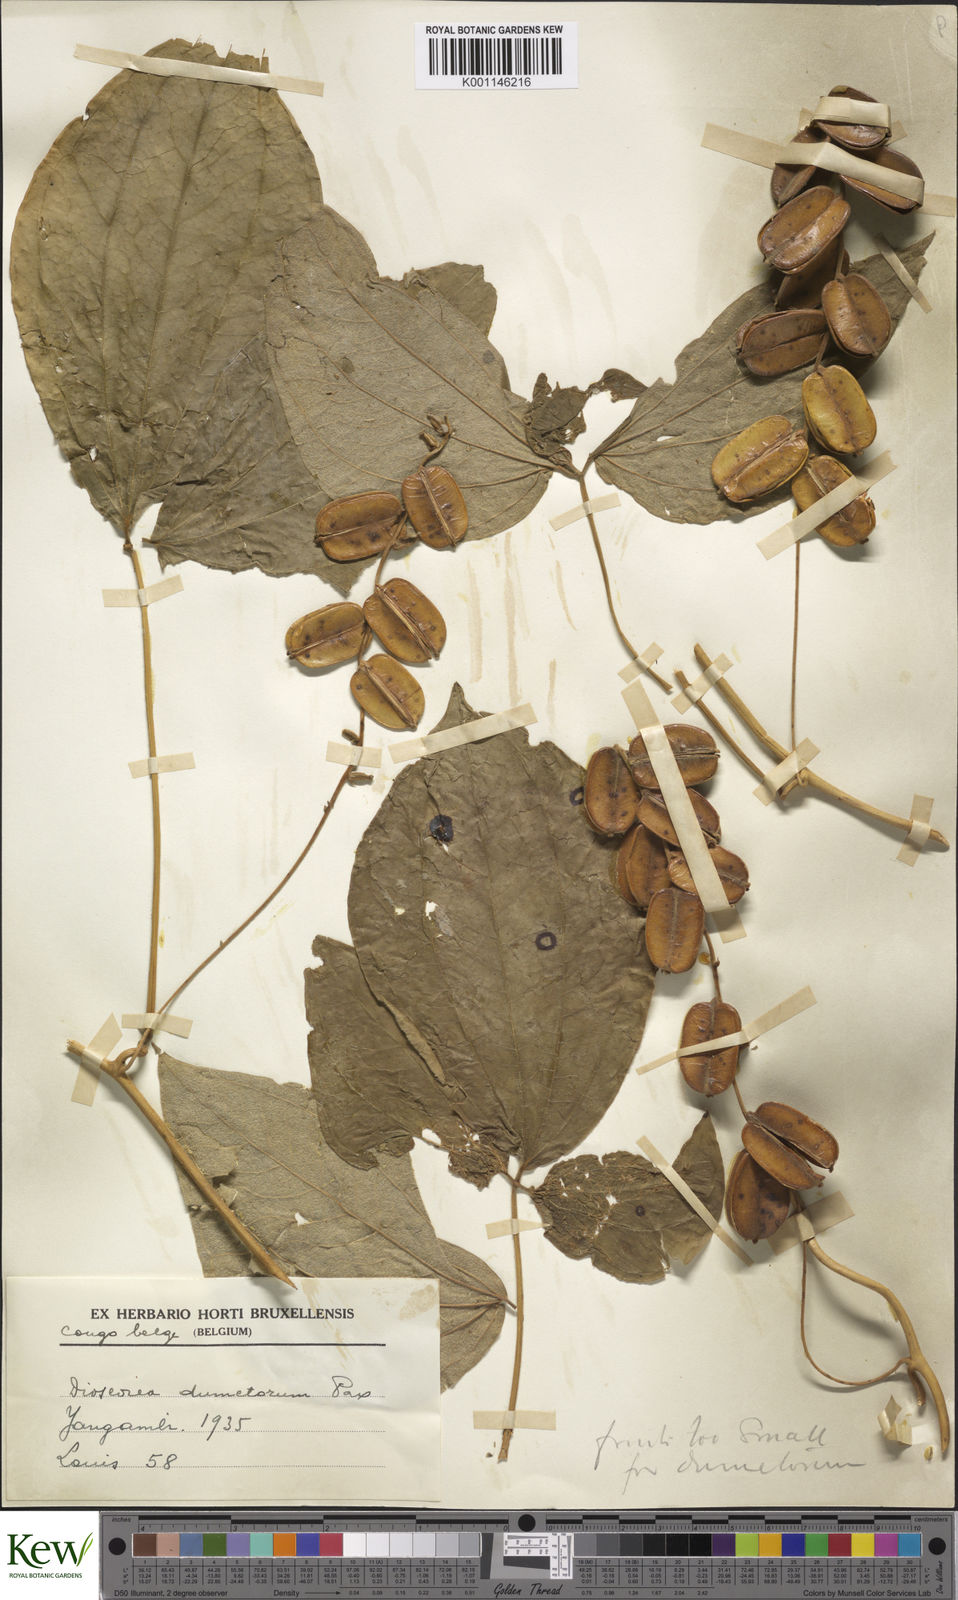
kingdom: Plantae
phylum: Tracheophyta
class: Liliopsida
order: Dioscoreales
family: Dioscoreaceae
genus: Dioscorea
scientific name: Dioscorea dumetorum
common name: African bitter yam
